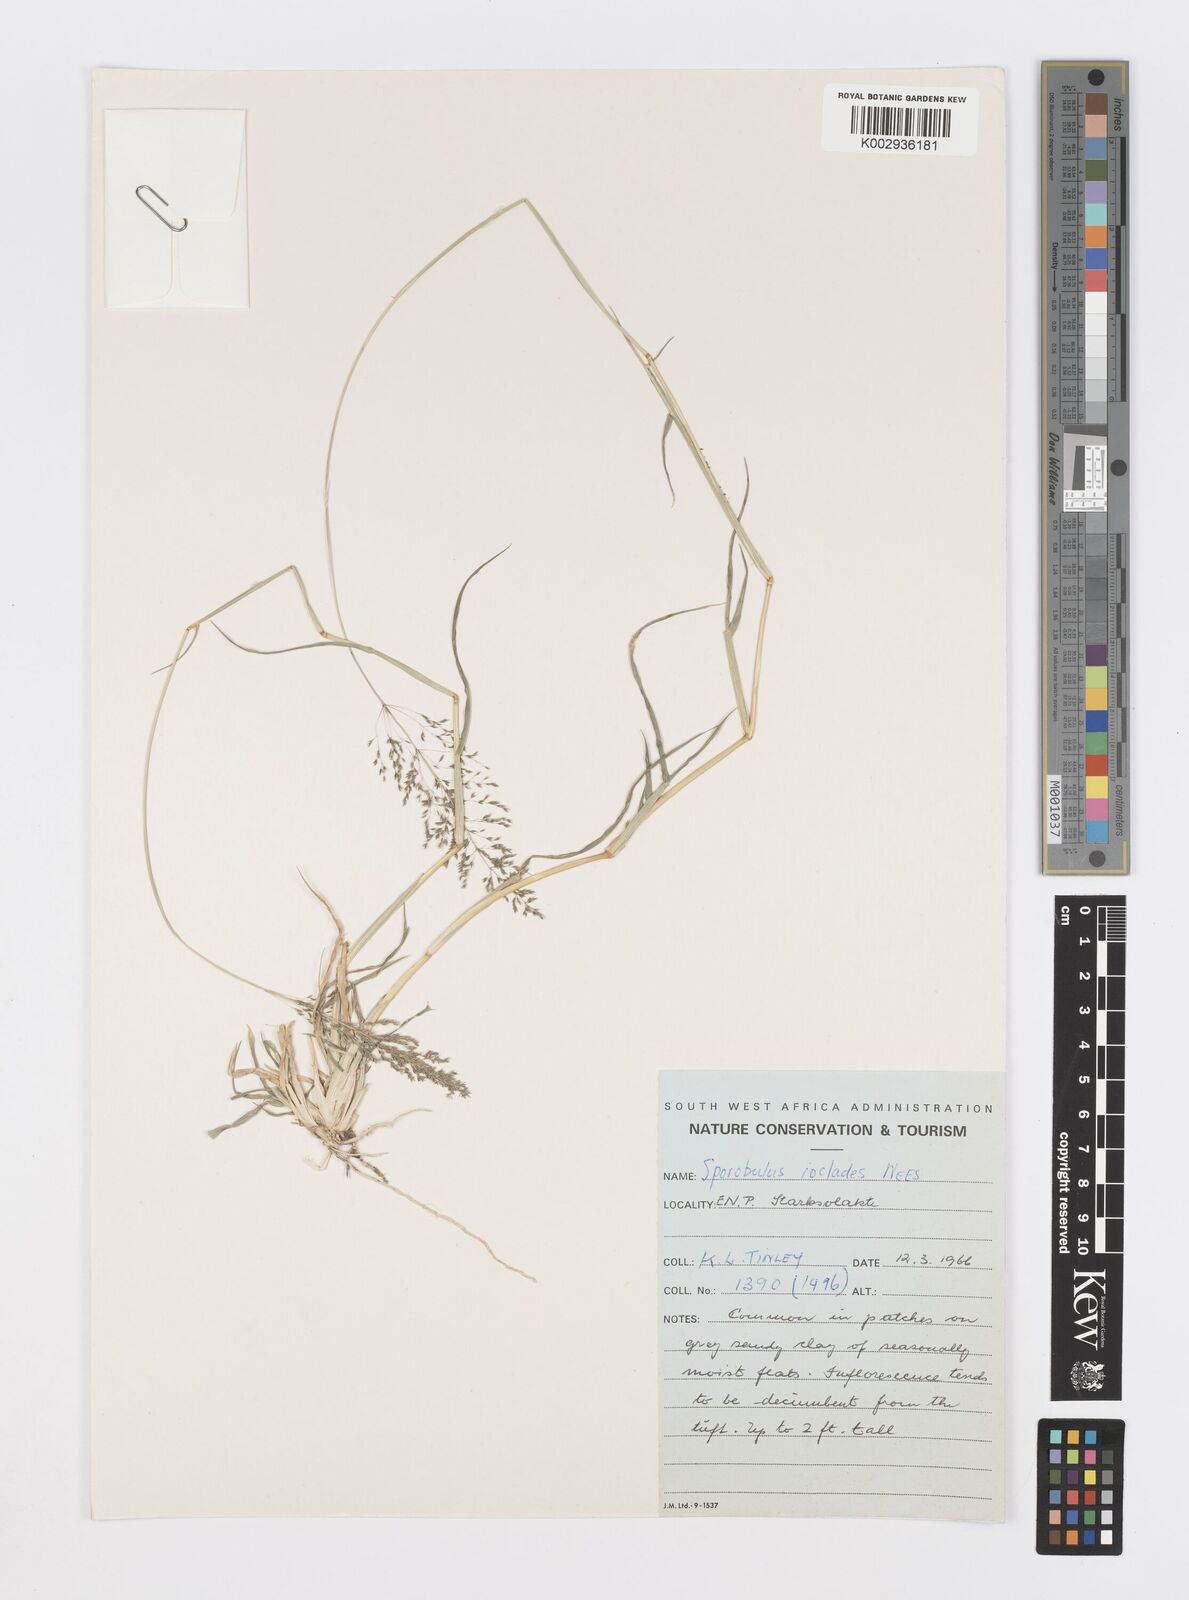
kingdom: Plantae
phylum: Tracheophyta
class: Liliopsida
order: Poales
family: Poaceae
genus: Sporobolus
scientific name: Sporobolus ioclados
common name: Pan dropseed
